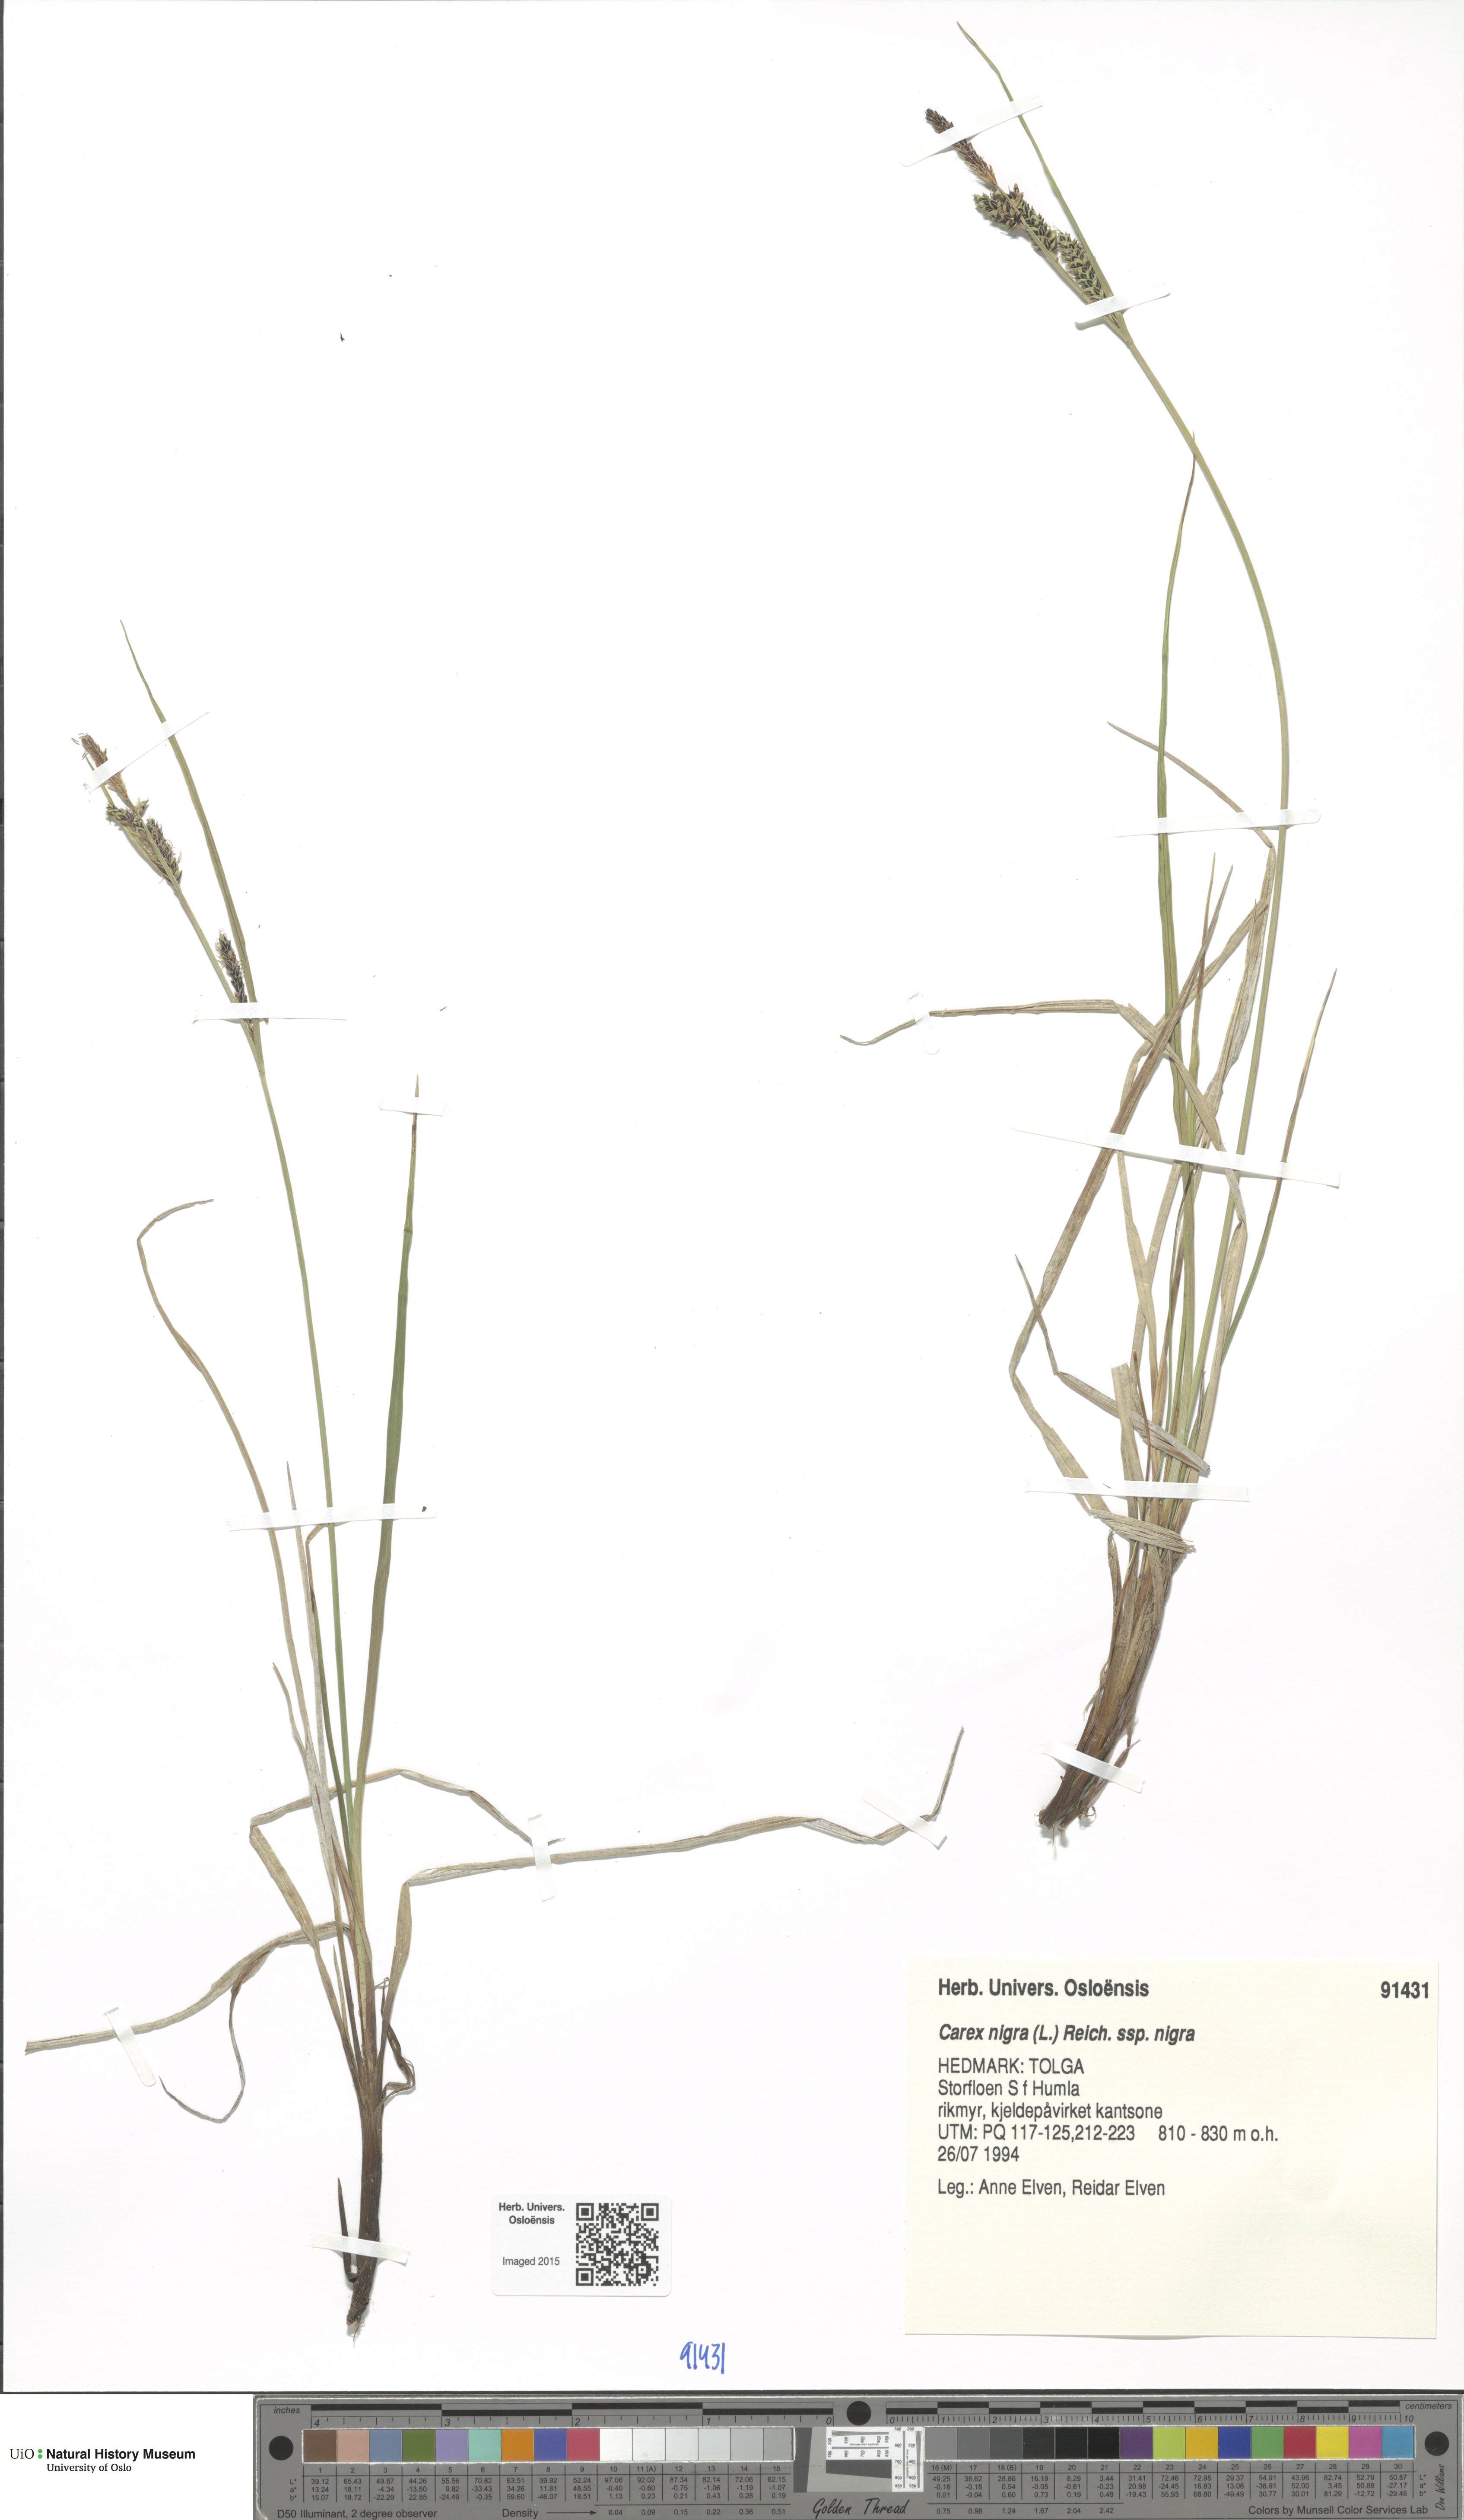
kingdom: Plantae
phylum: Tracheophyta
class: Liliopsida
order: Poales
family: Cyperaceae
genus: Carex
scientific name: Carex nigra
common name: Common sedge
